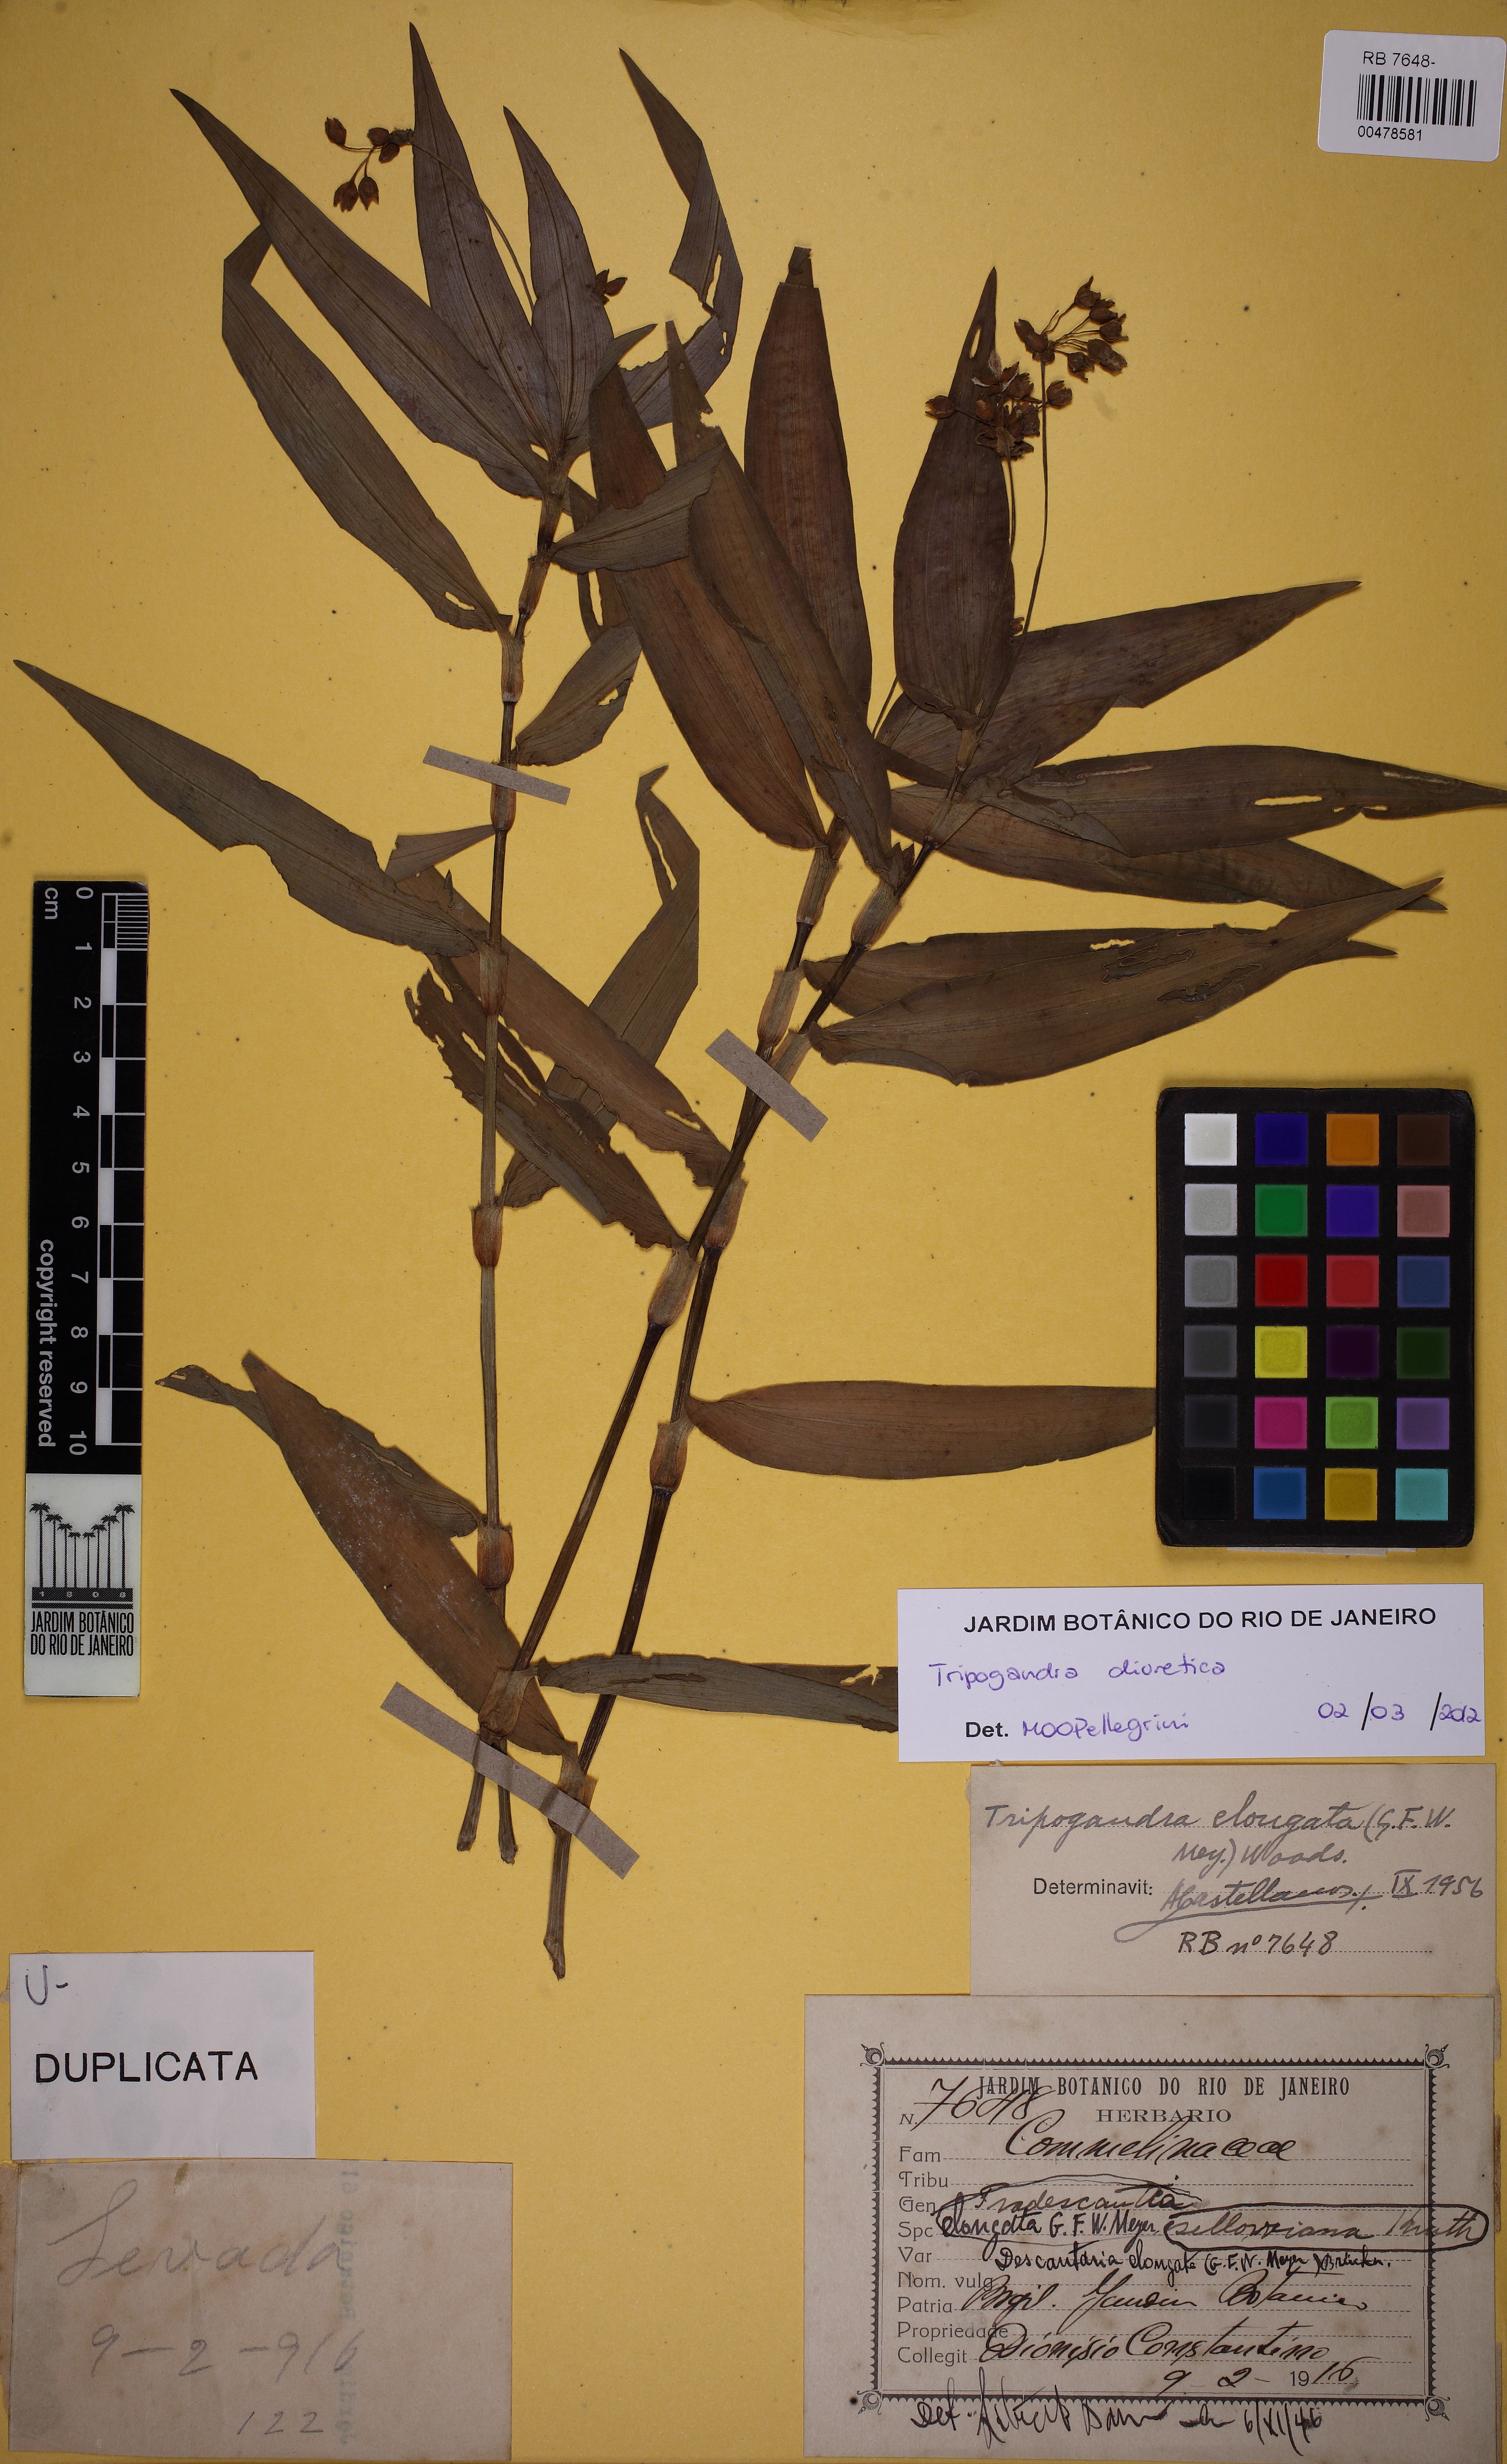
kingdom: Plantae
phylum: Tracheophyta
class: Liliopsida
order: Commelinales
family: Commelinaceae
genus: Callisia
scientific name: Callisia diuretica
